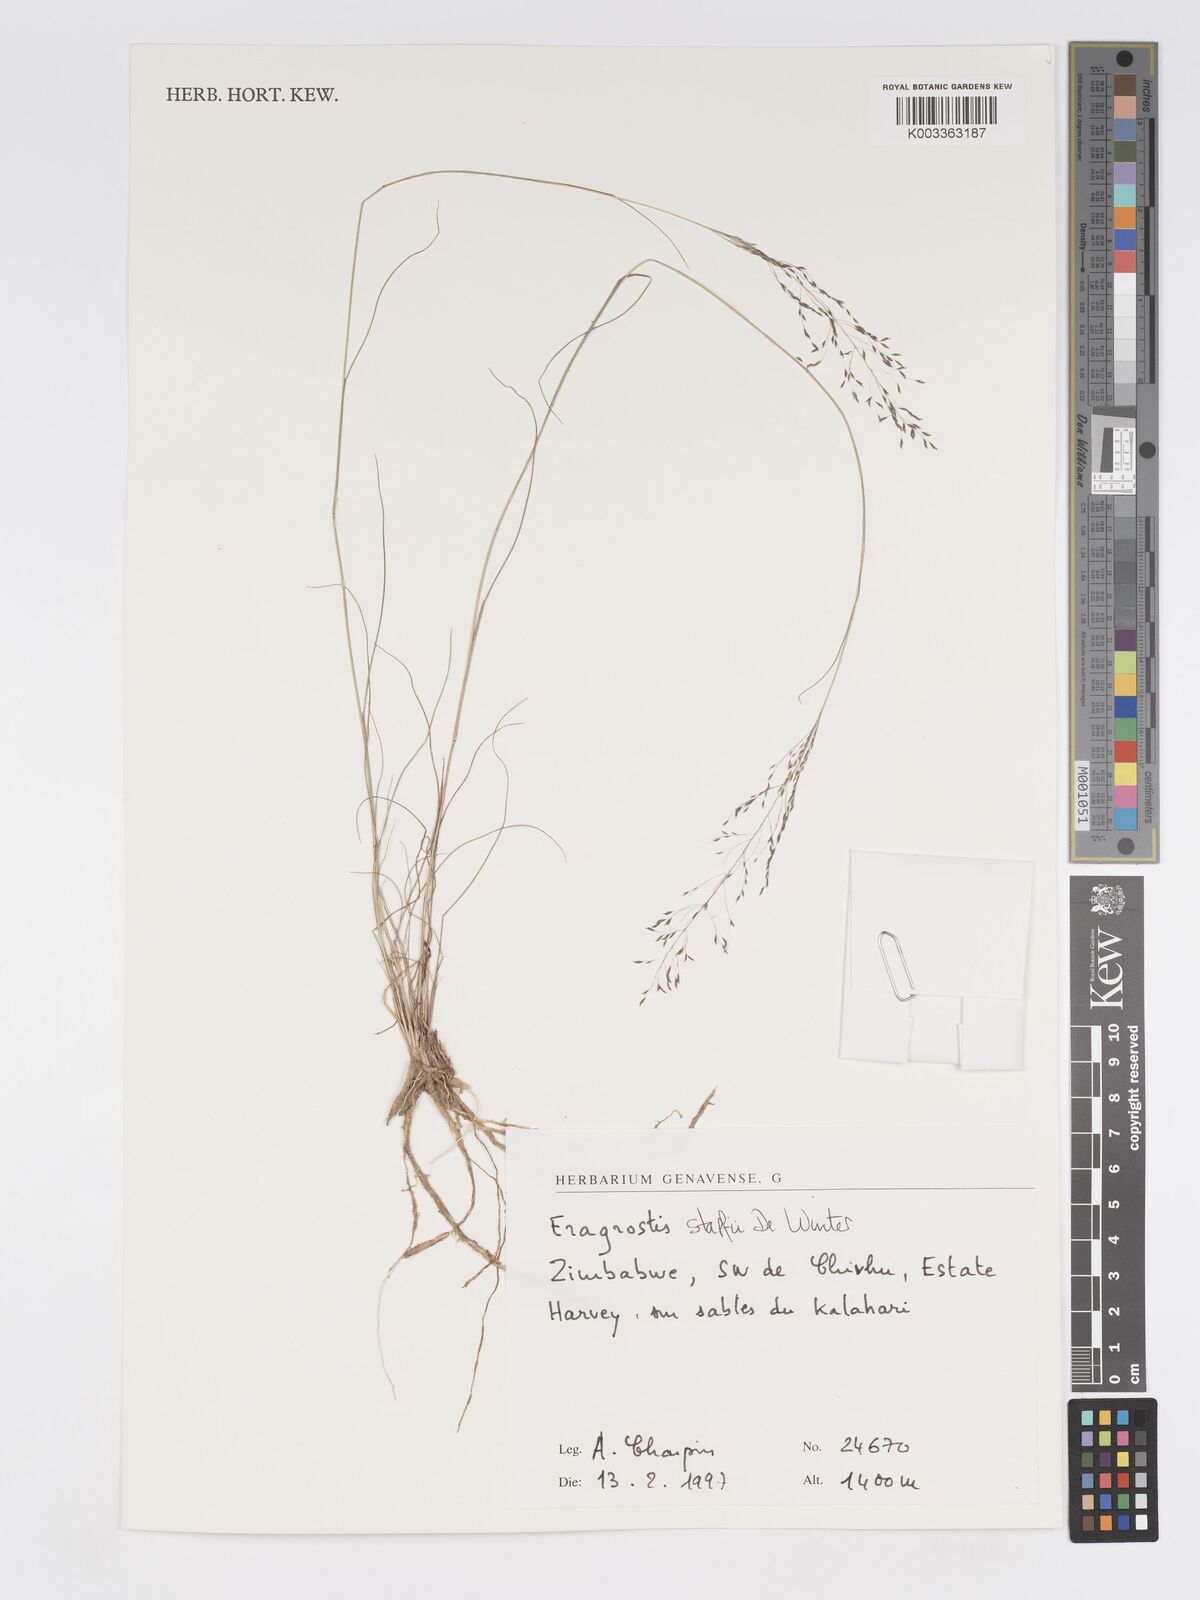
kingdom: Plantae
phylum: Tracheophyta
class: Liliopsida
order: Poales
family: Poaceae
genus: Eragrostis
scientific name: Eragrostis stapfii
